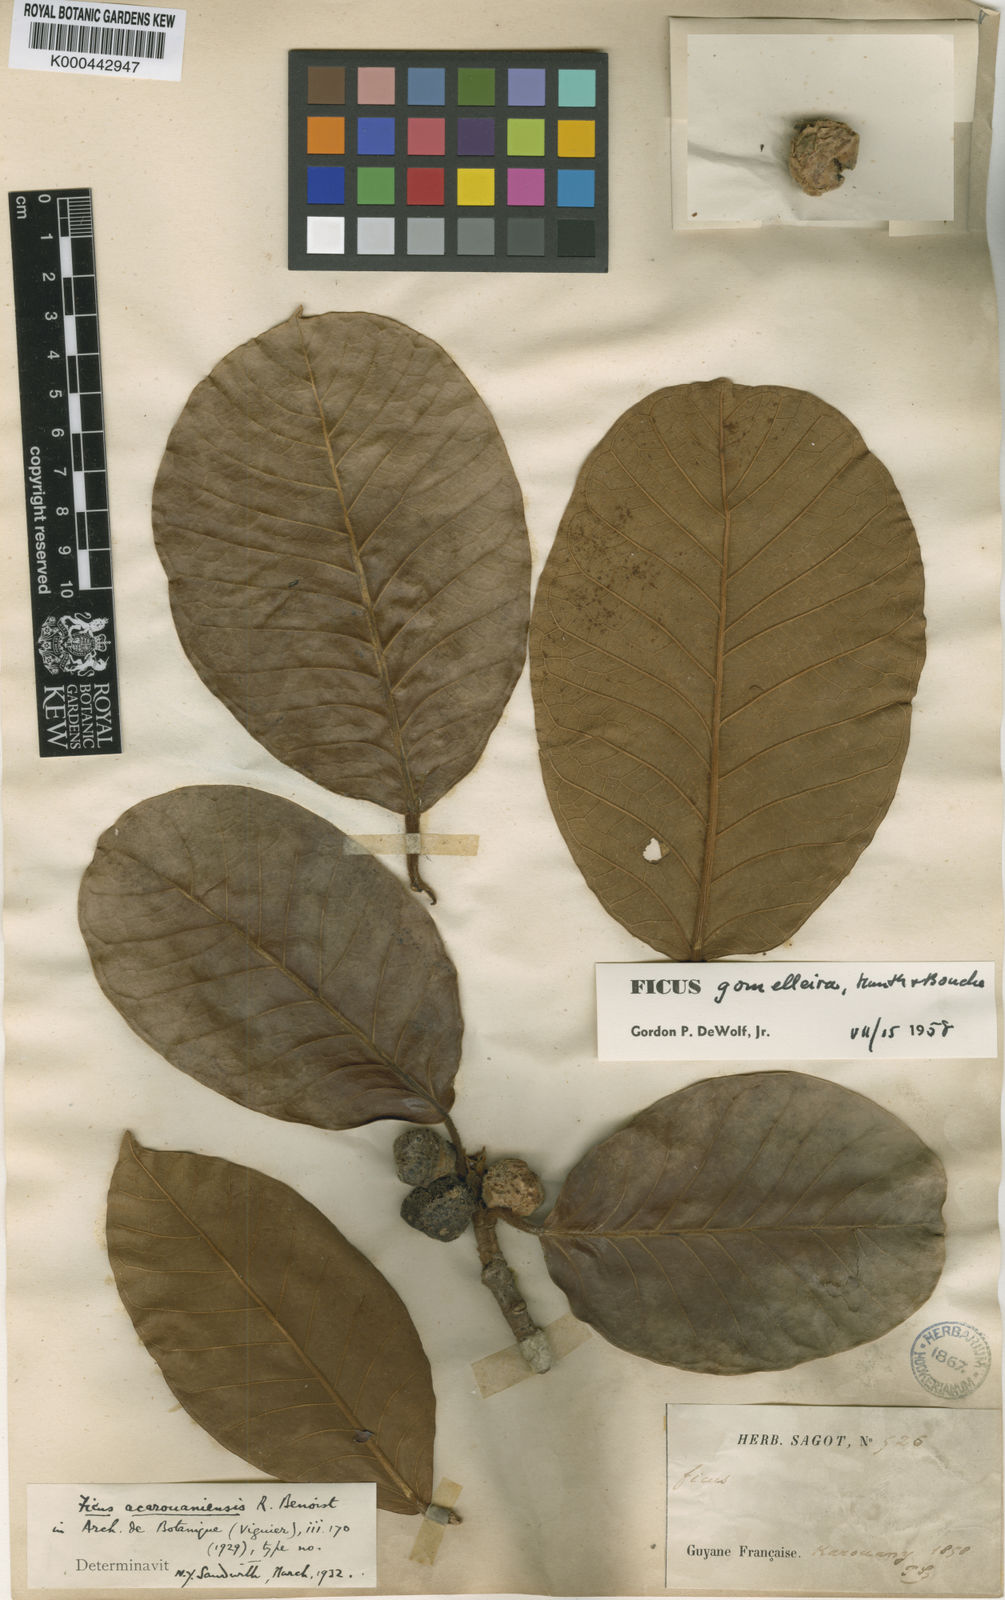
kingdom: Plantae
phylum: Tracheophyta
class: Magnoliopsida
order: Rosales
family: Moraceae
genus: Ficus
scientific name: Ficus
